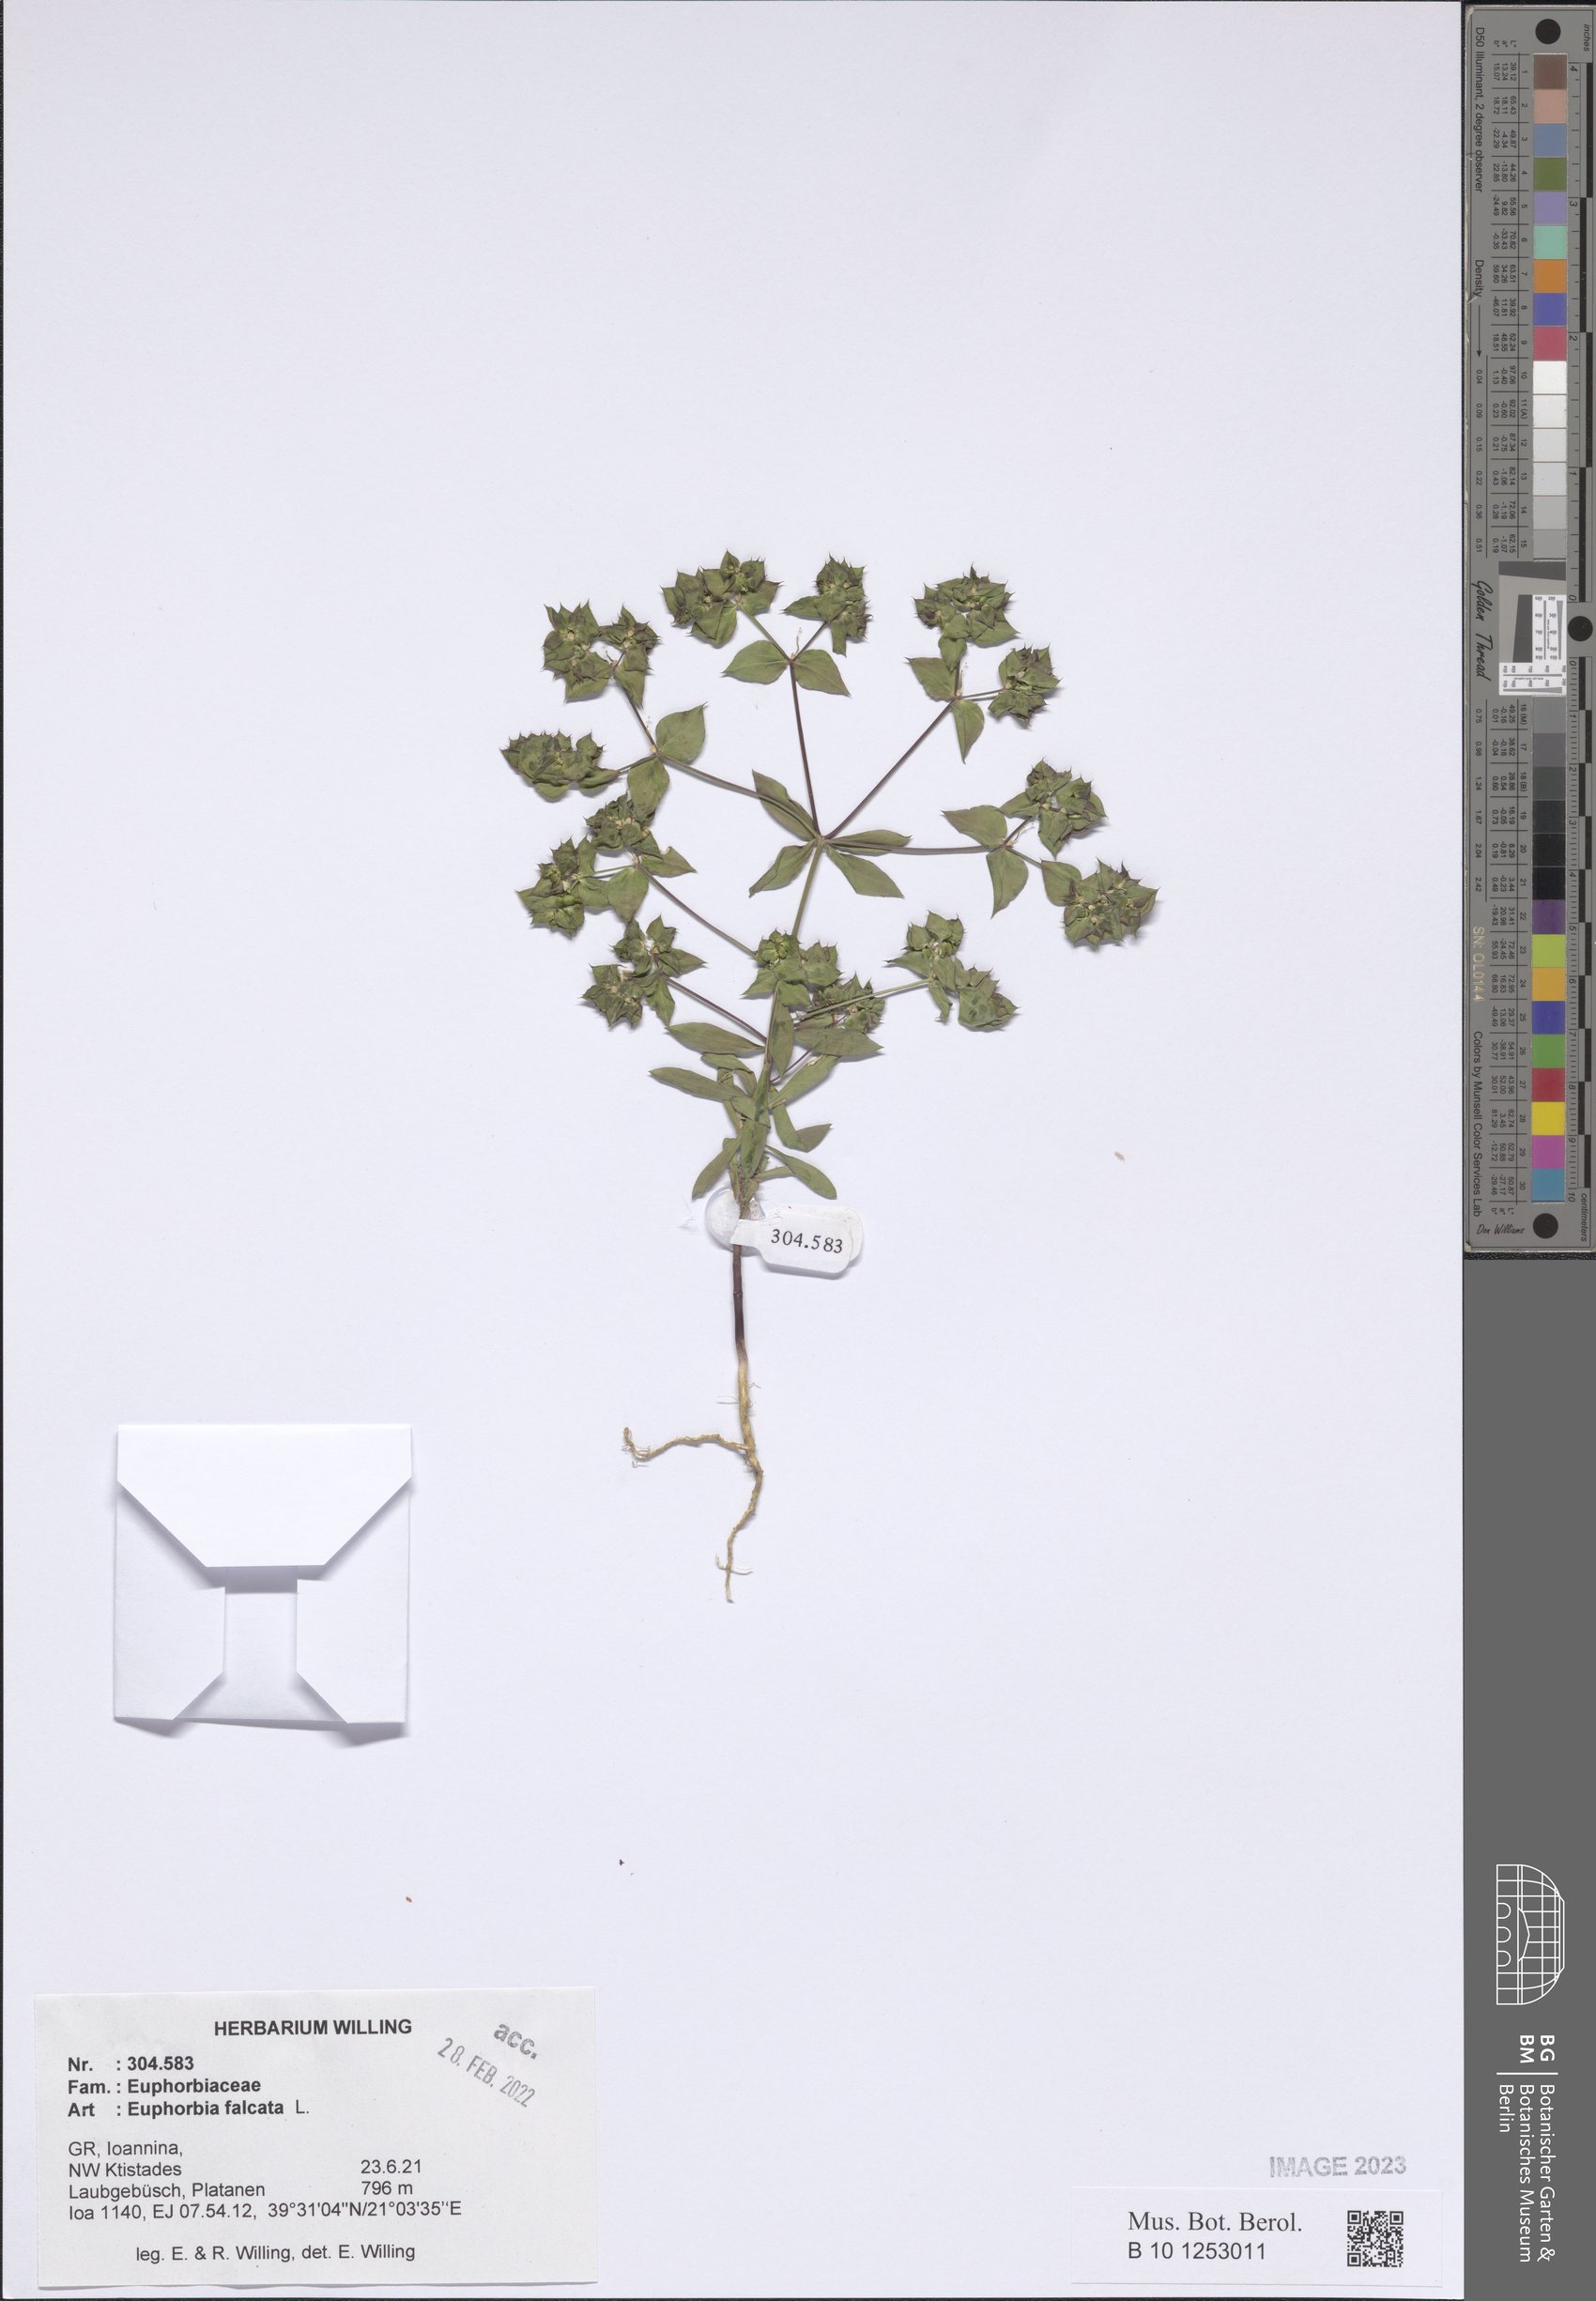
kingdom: Plantae
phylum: Tracheophyta
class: Magnoliopsida
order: Malpighiales
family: Euphorbiaceae
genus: Euphorbia
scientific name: Euphorbia falcata
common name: Sickle spurge
